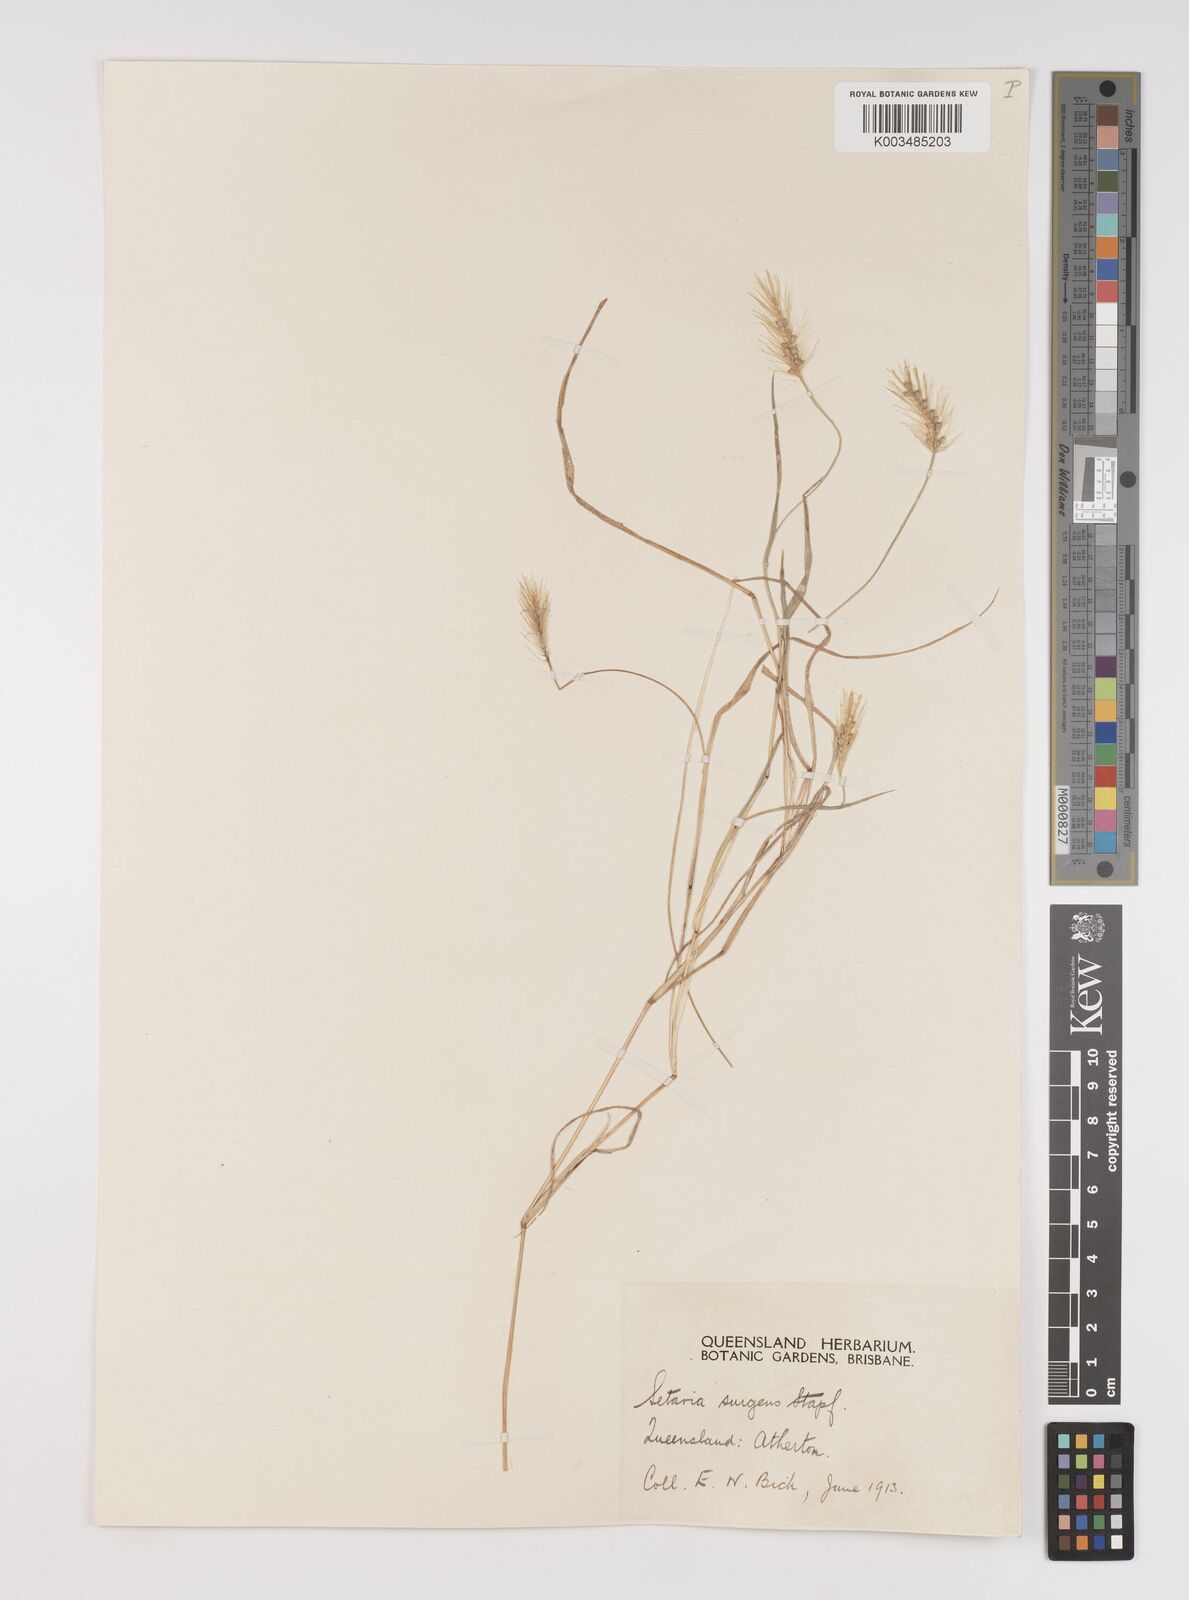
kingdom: Plantae
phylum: Tracheophyta
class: Liliopsida
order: Poales
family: Poaceae
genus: Setaria
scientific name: Setaria apiculata
